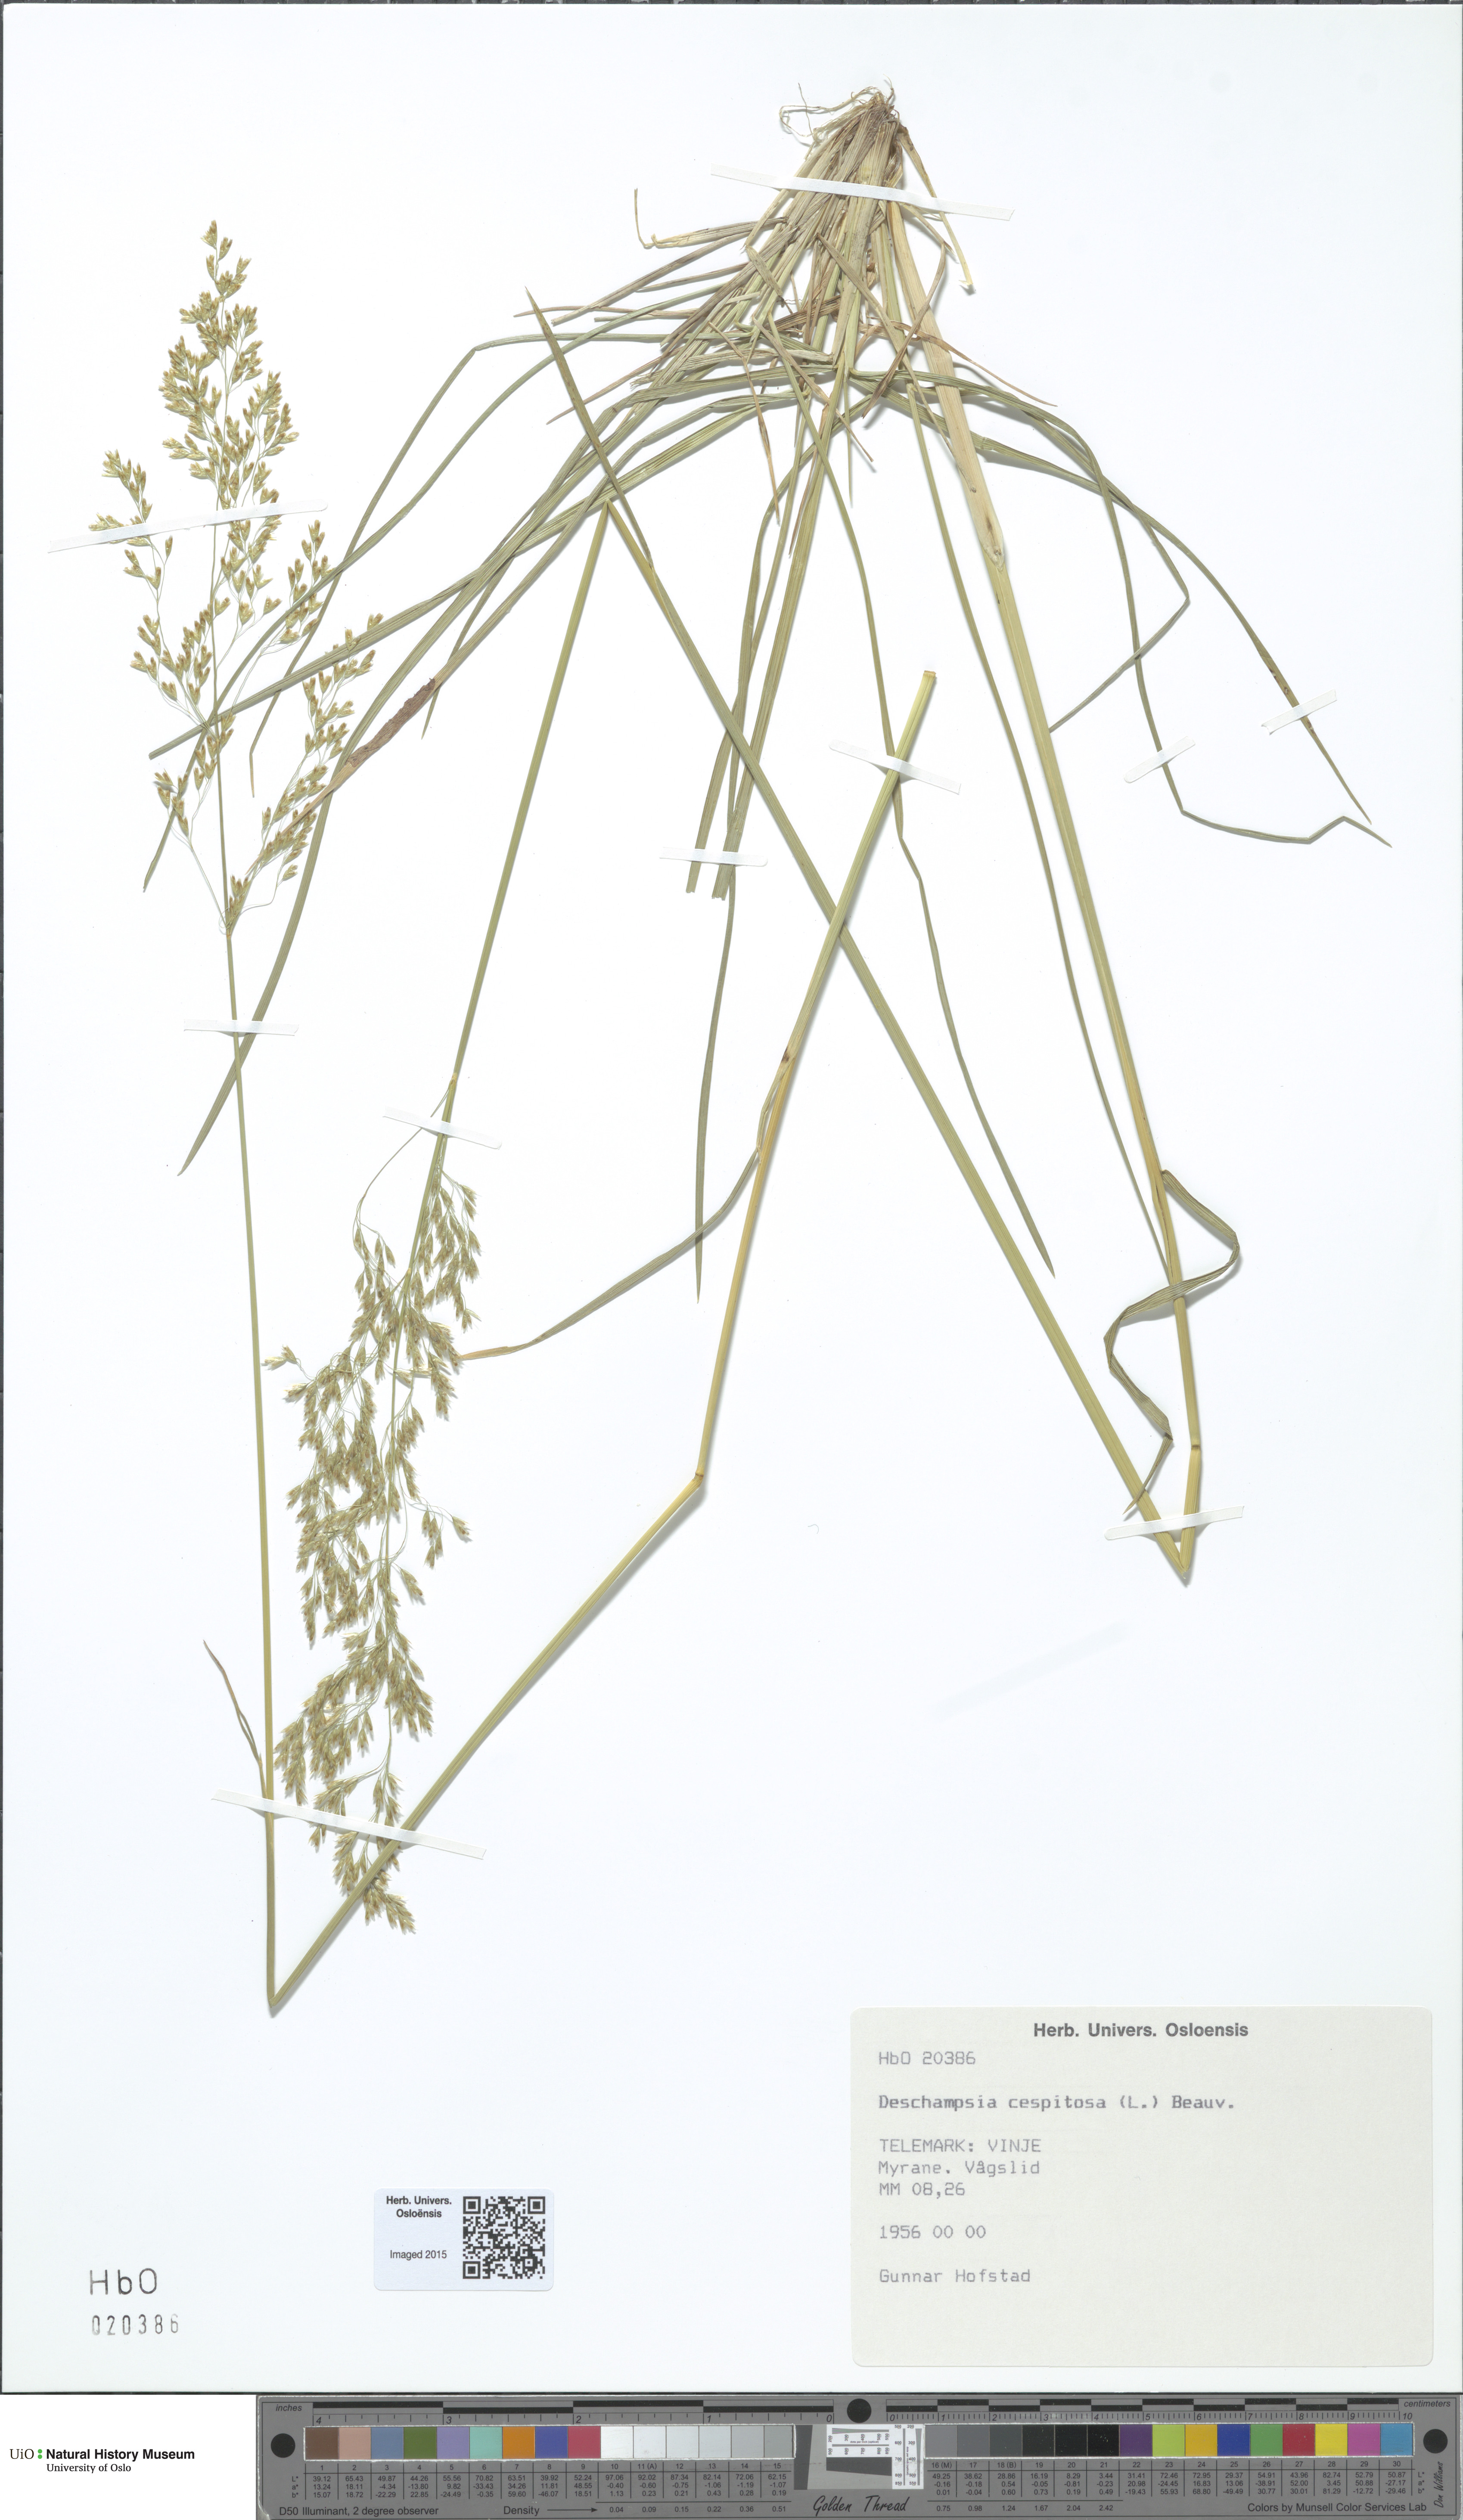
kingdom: Plantae
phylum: Tracheophyta
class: Liliopsida
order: Poales
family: Poaceae
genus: Deschampsia
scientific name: Deschampsia cespitosa
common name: Tufted hair-grass
